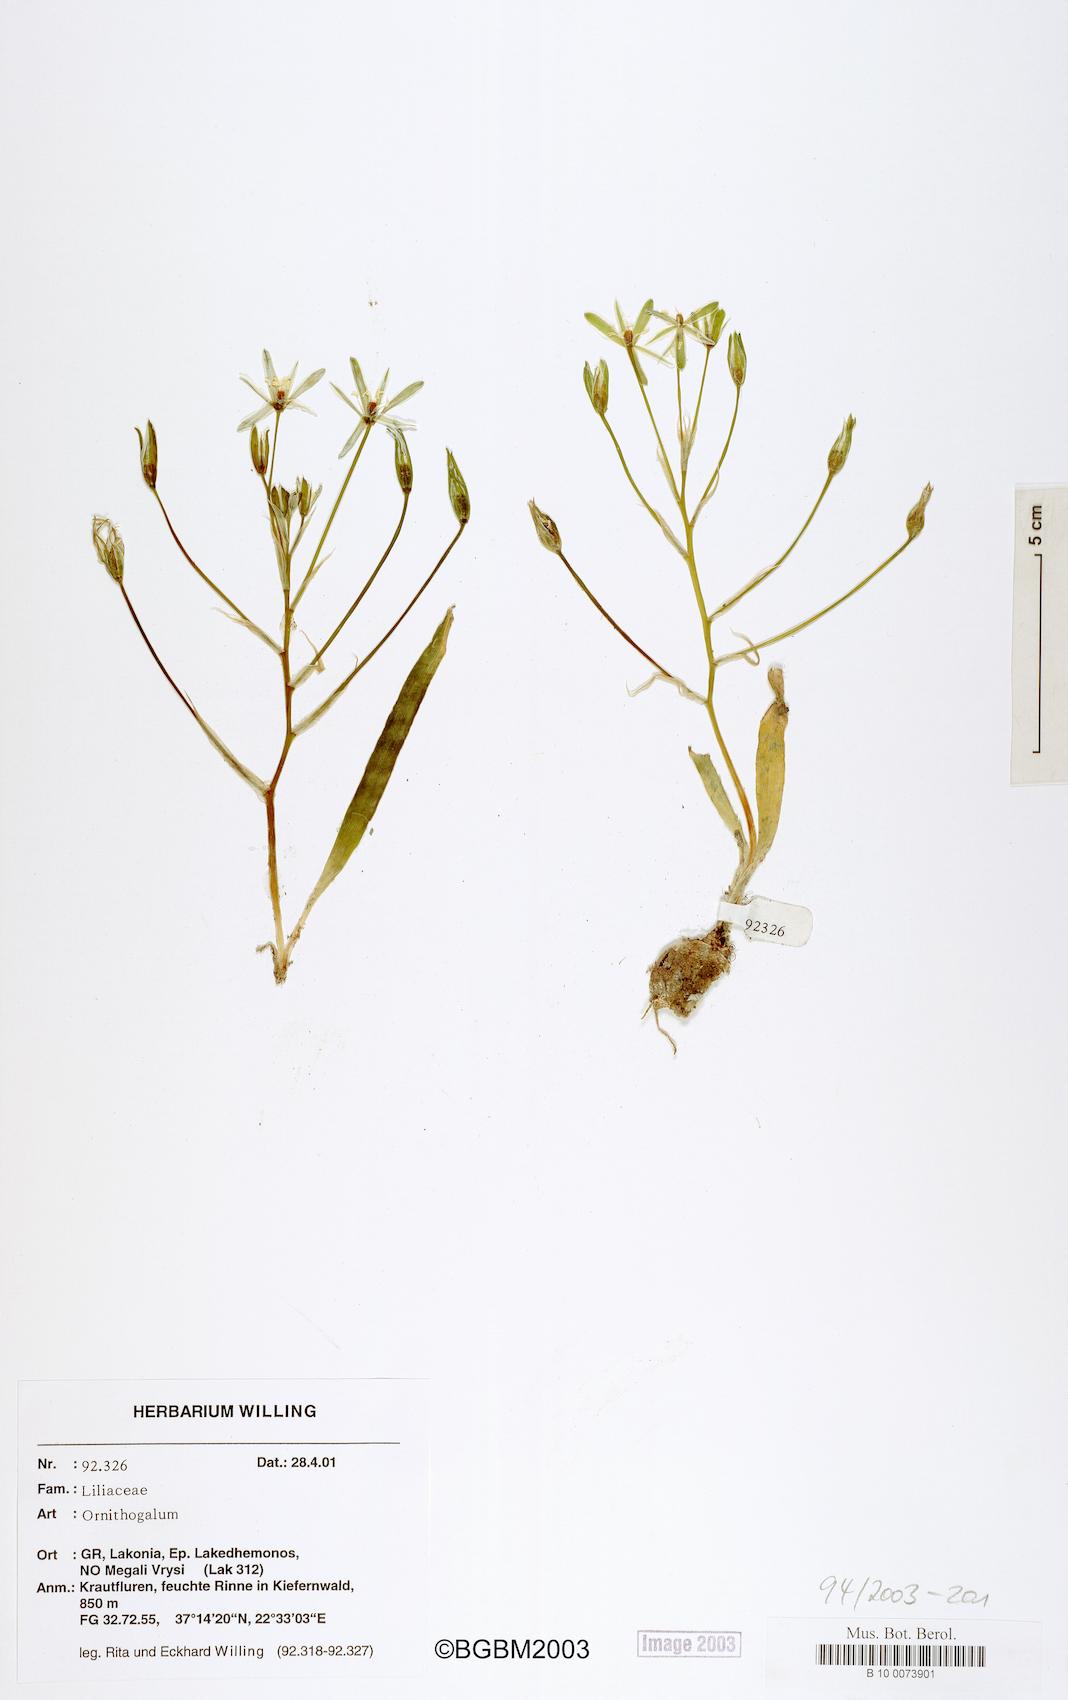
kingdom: Plantae
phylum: Tracheophyta
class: Liliopsida
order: Liliales
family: Liliaceae
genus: Ornithogalum
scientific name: Ornithogalum
